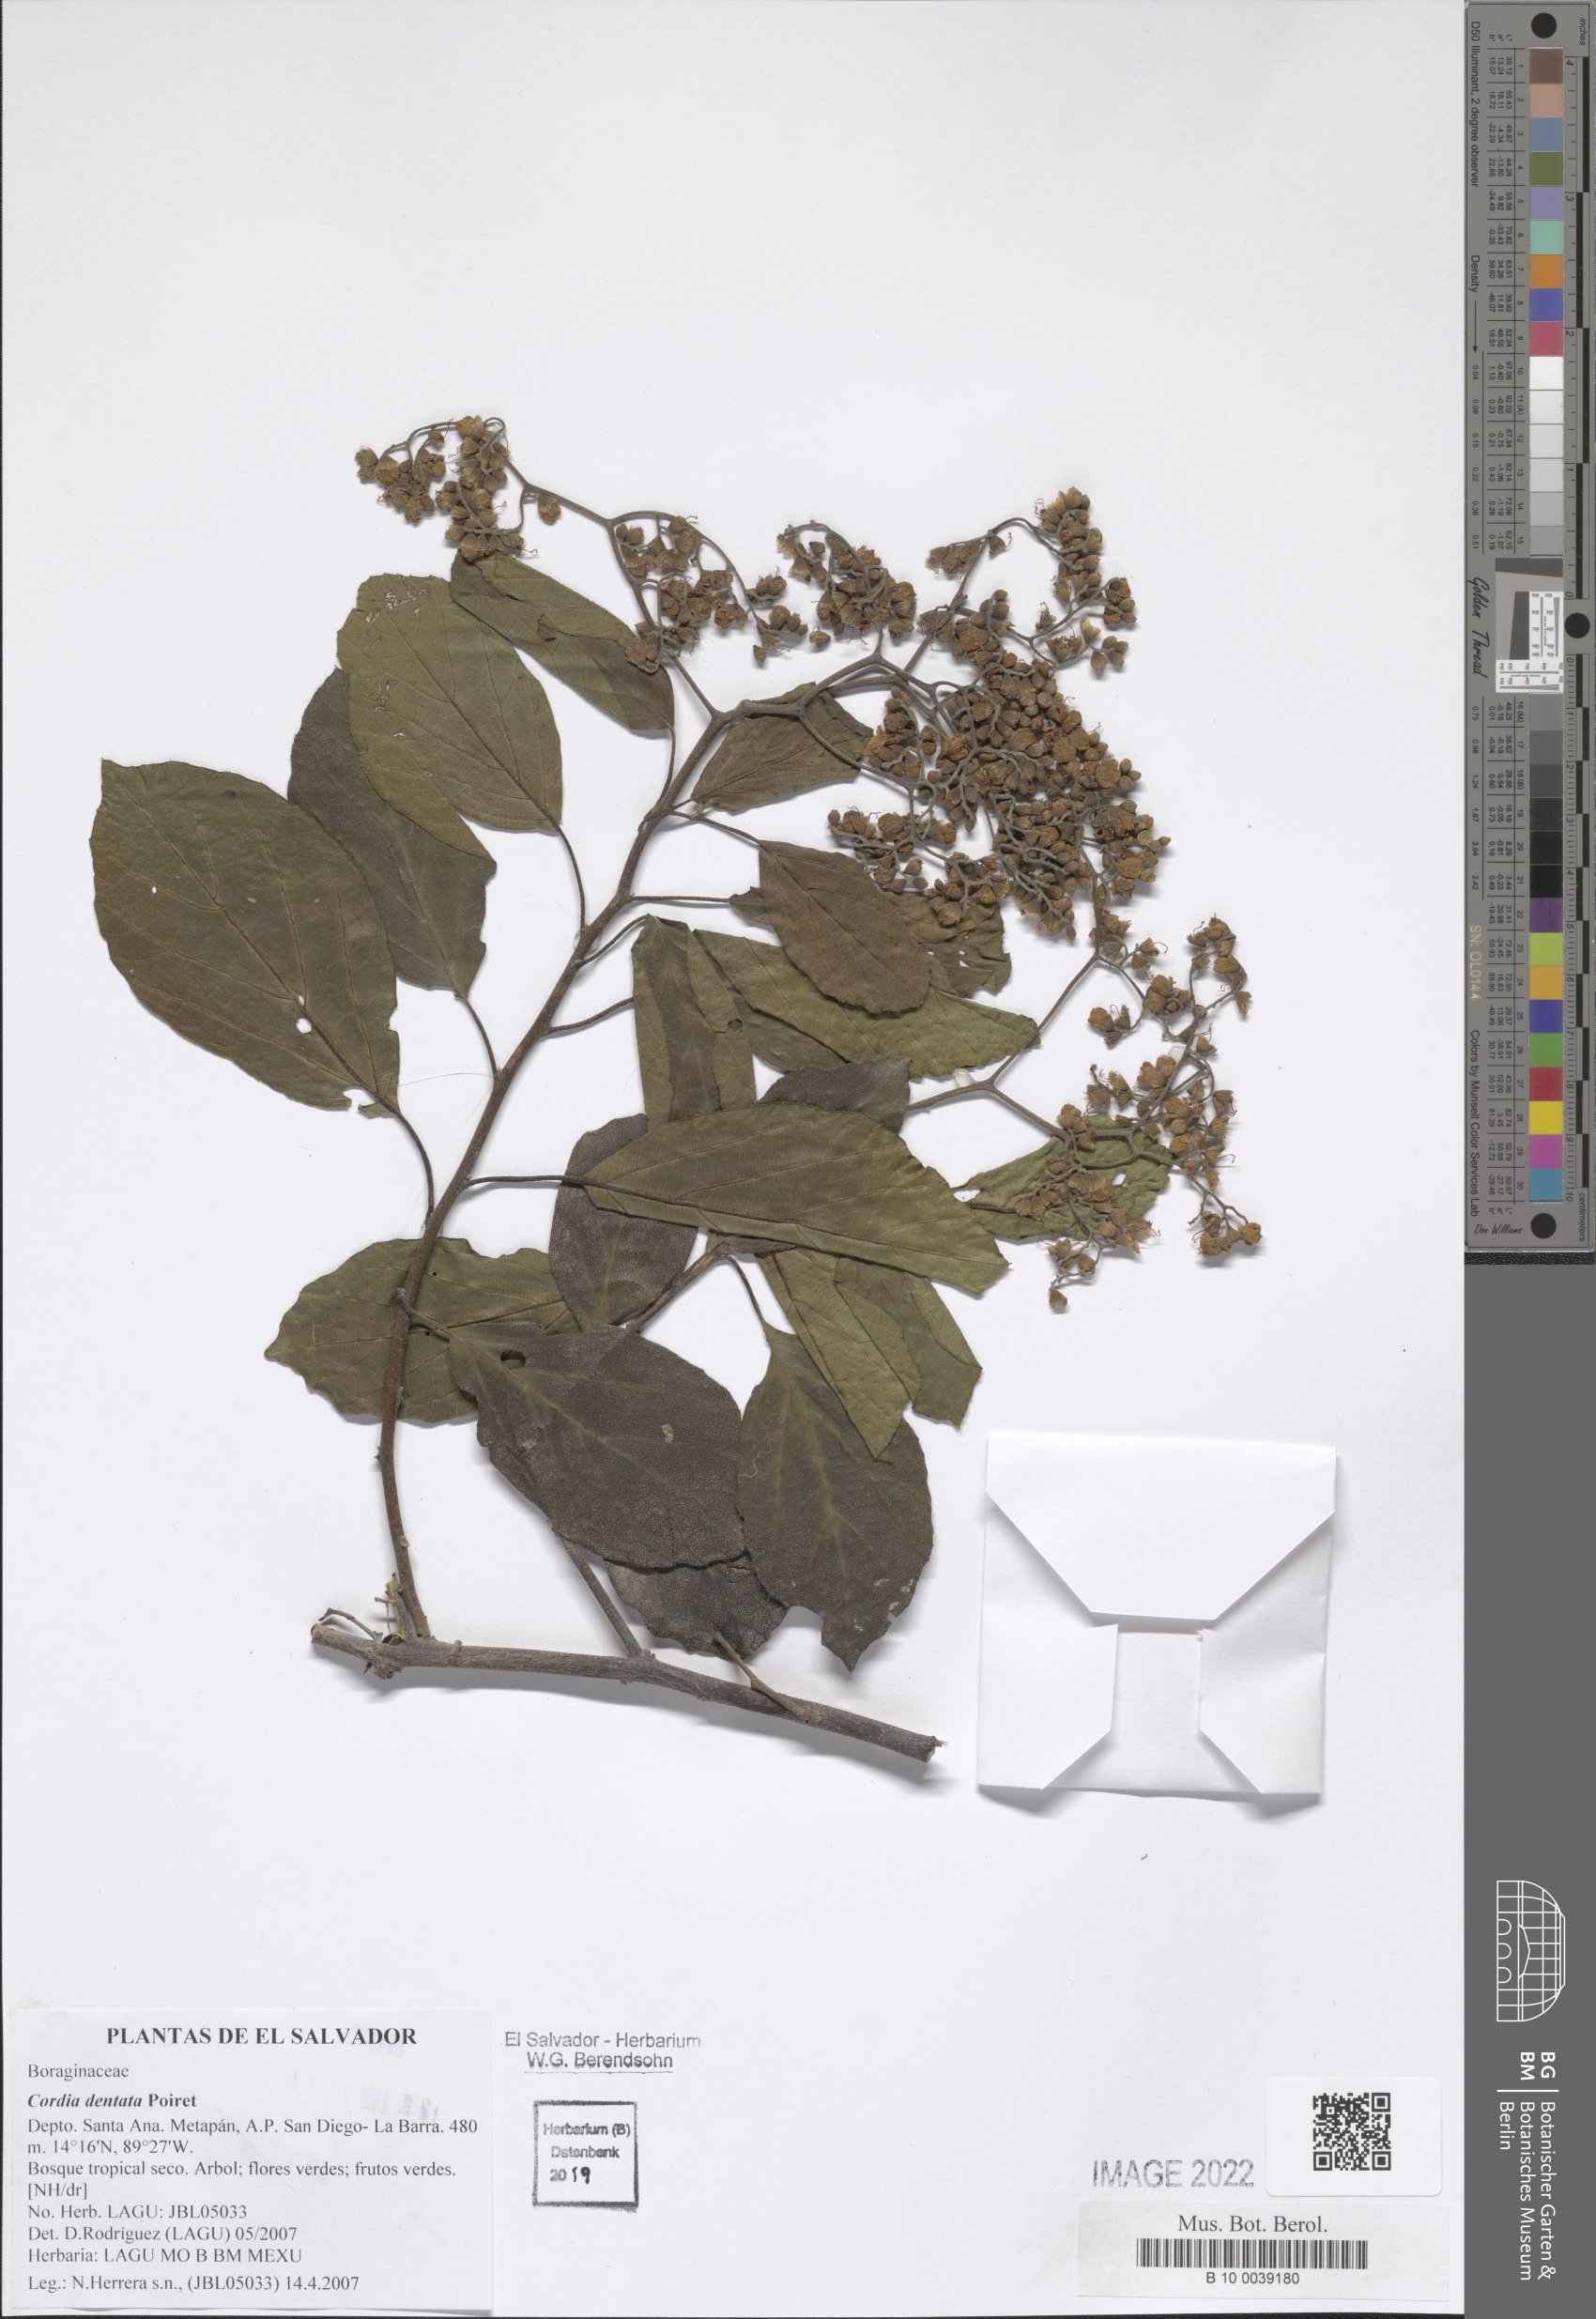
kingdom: Plantae
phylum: Tracheophyta
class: Magnoliopsida
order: Boraginales
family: Cordiaceae
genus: Cordia
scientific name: Cordia dentata
